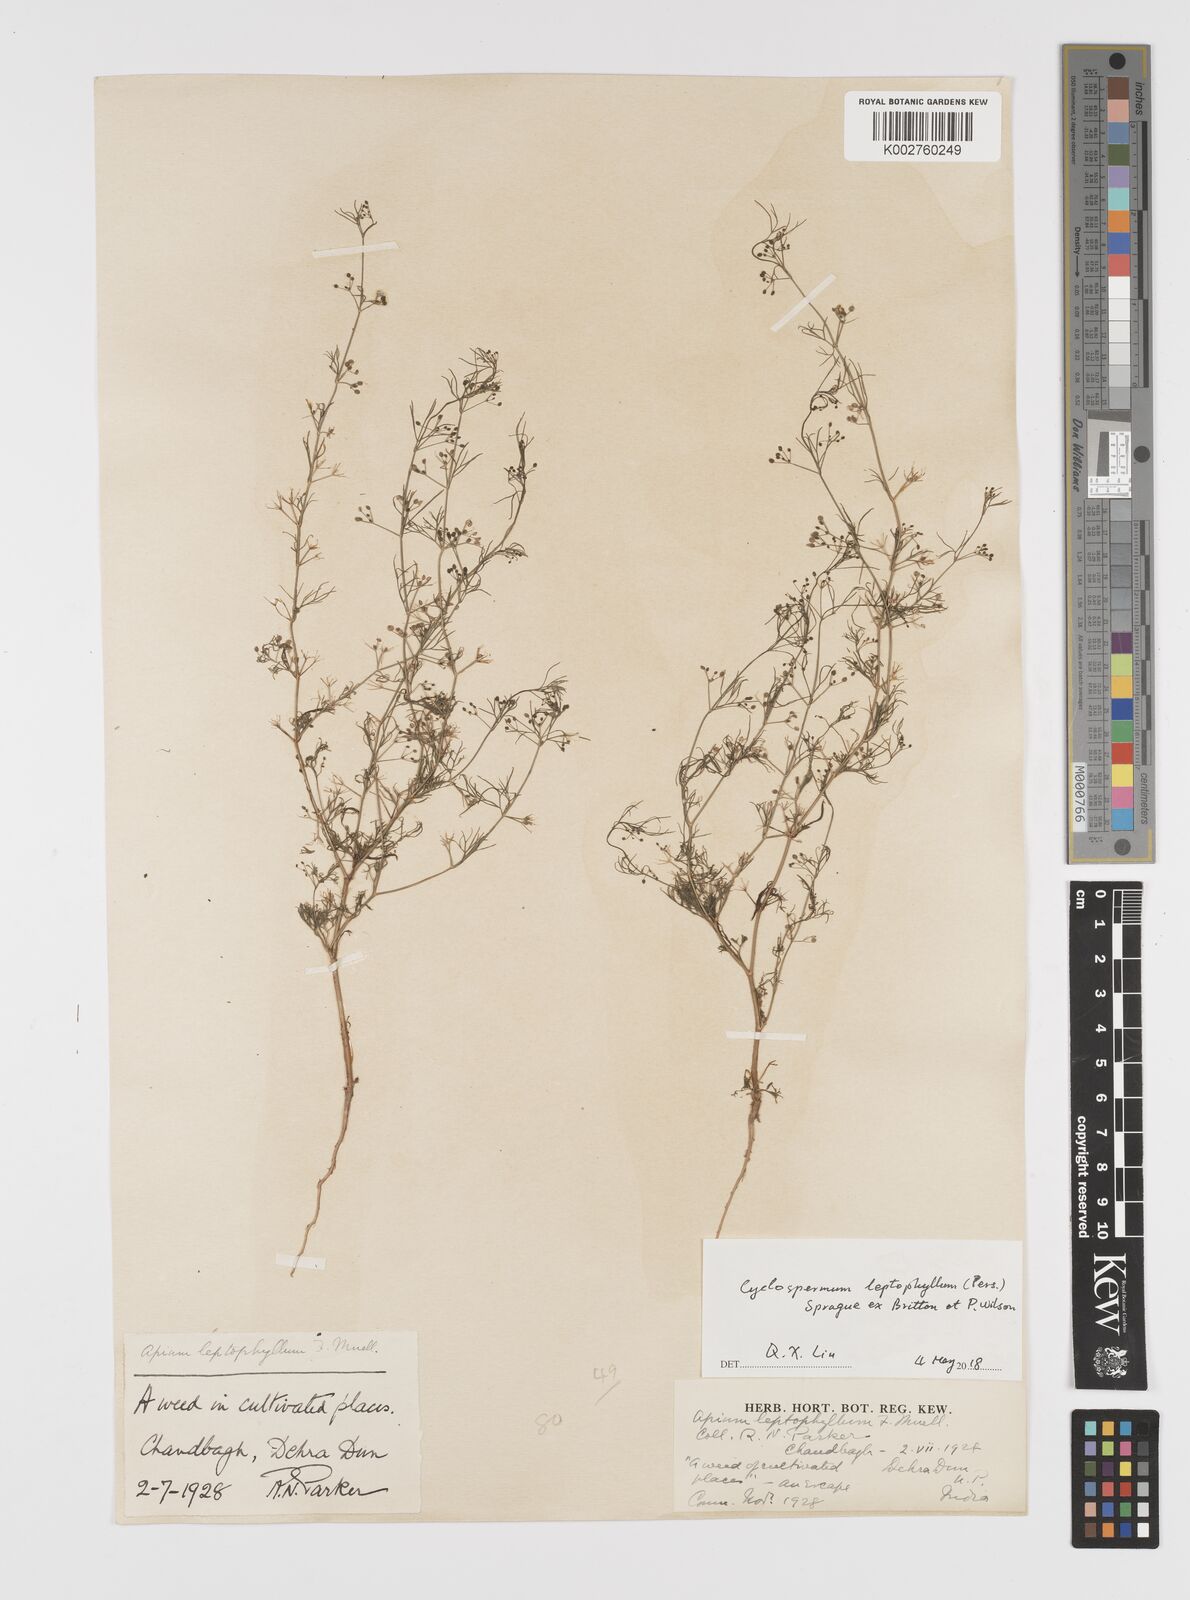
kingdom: Plantae
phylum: Tracheophyta
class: Magnoliopsida
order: Apiales
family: Apiaceae
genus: Cyclospermum
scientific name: Cyclospermum leptophyllum
